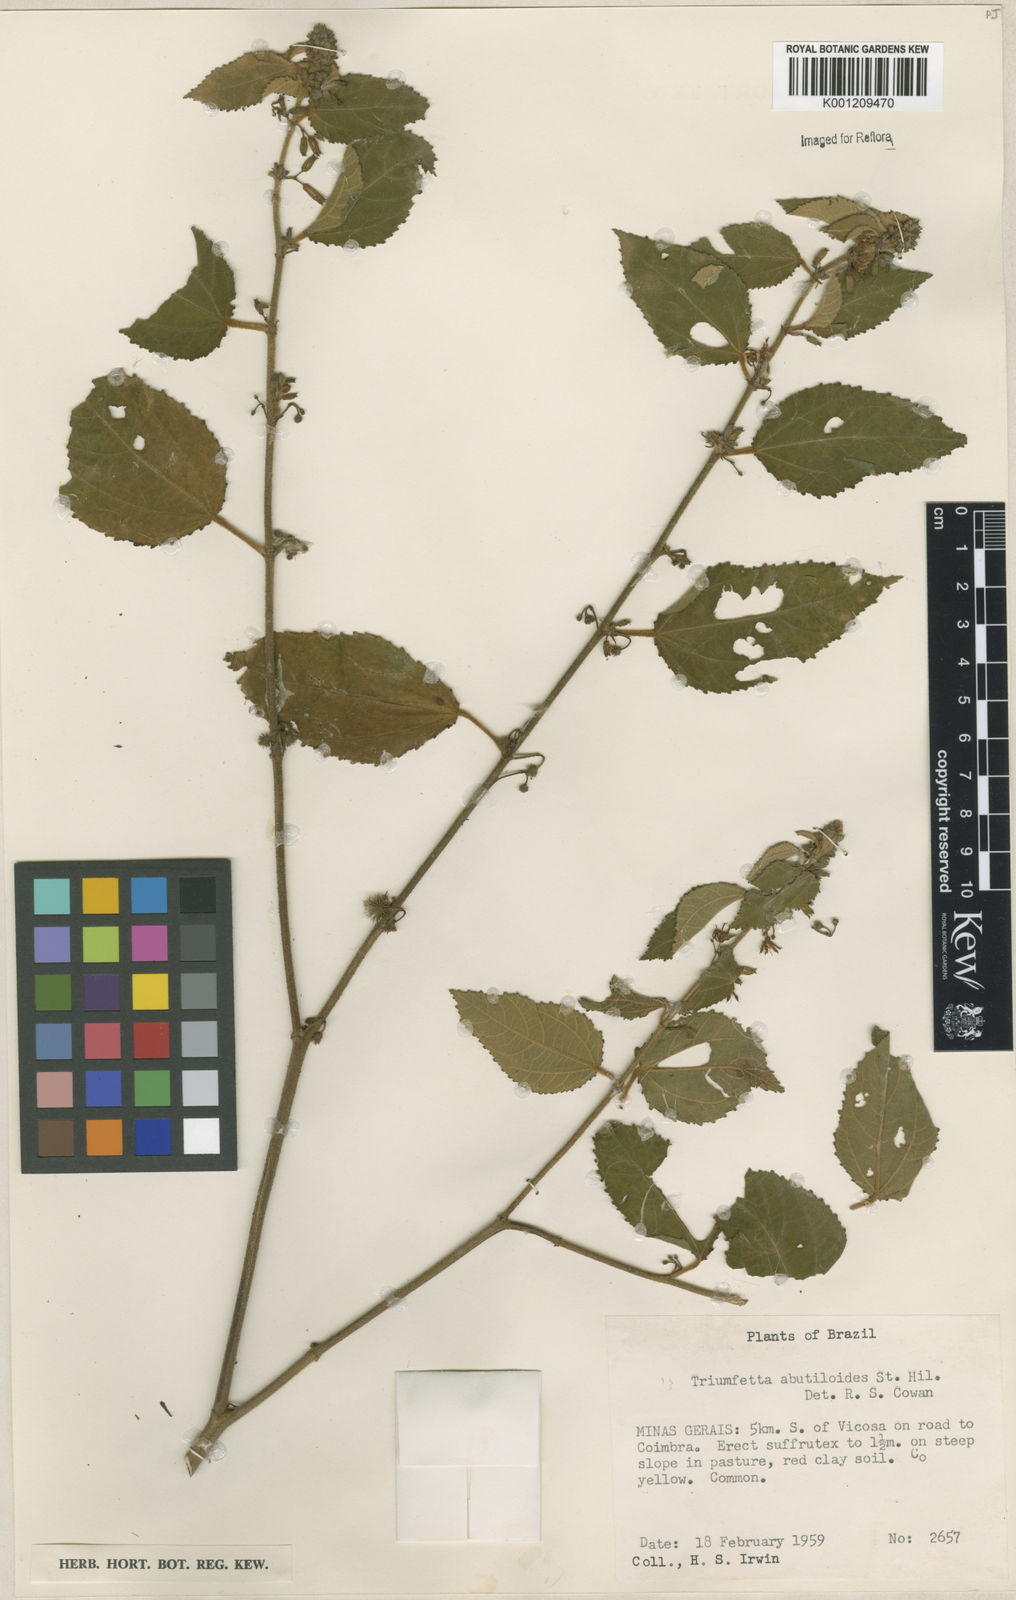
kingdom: Plantae
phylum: Tracheophyta
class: Magnoliopsida
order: Malvales
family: Malvaceae
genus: Triumfetta
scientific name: Triumfetta abutiloides
